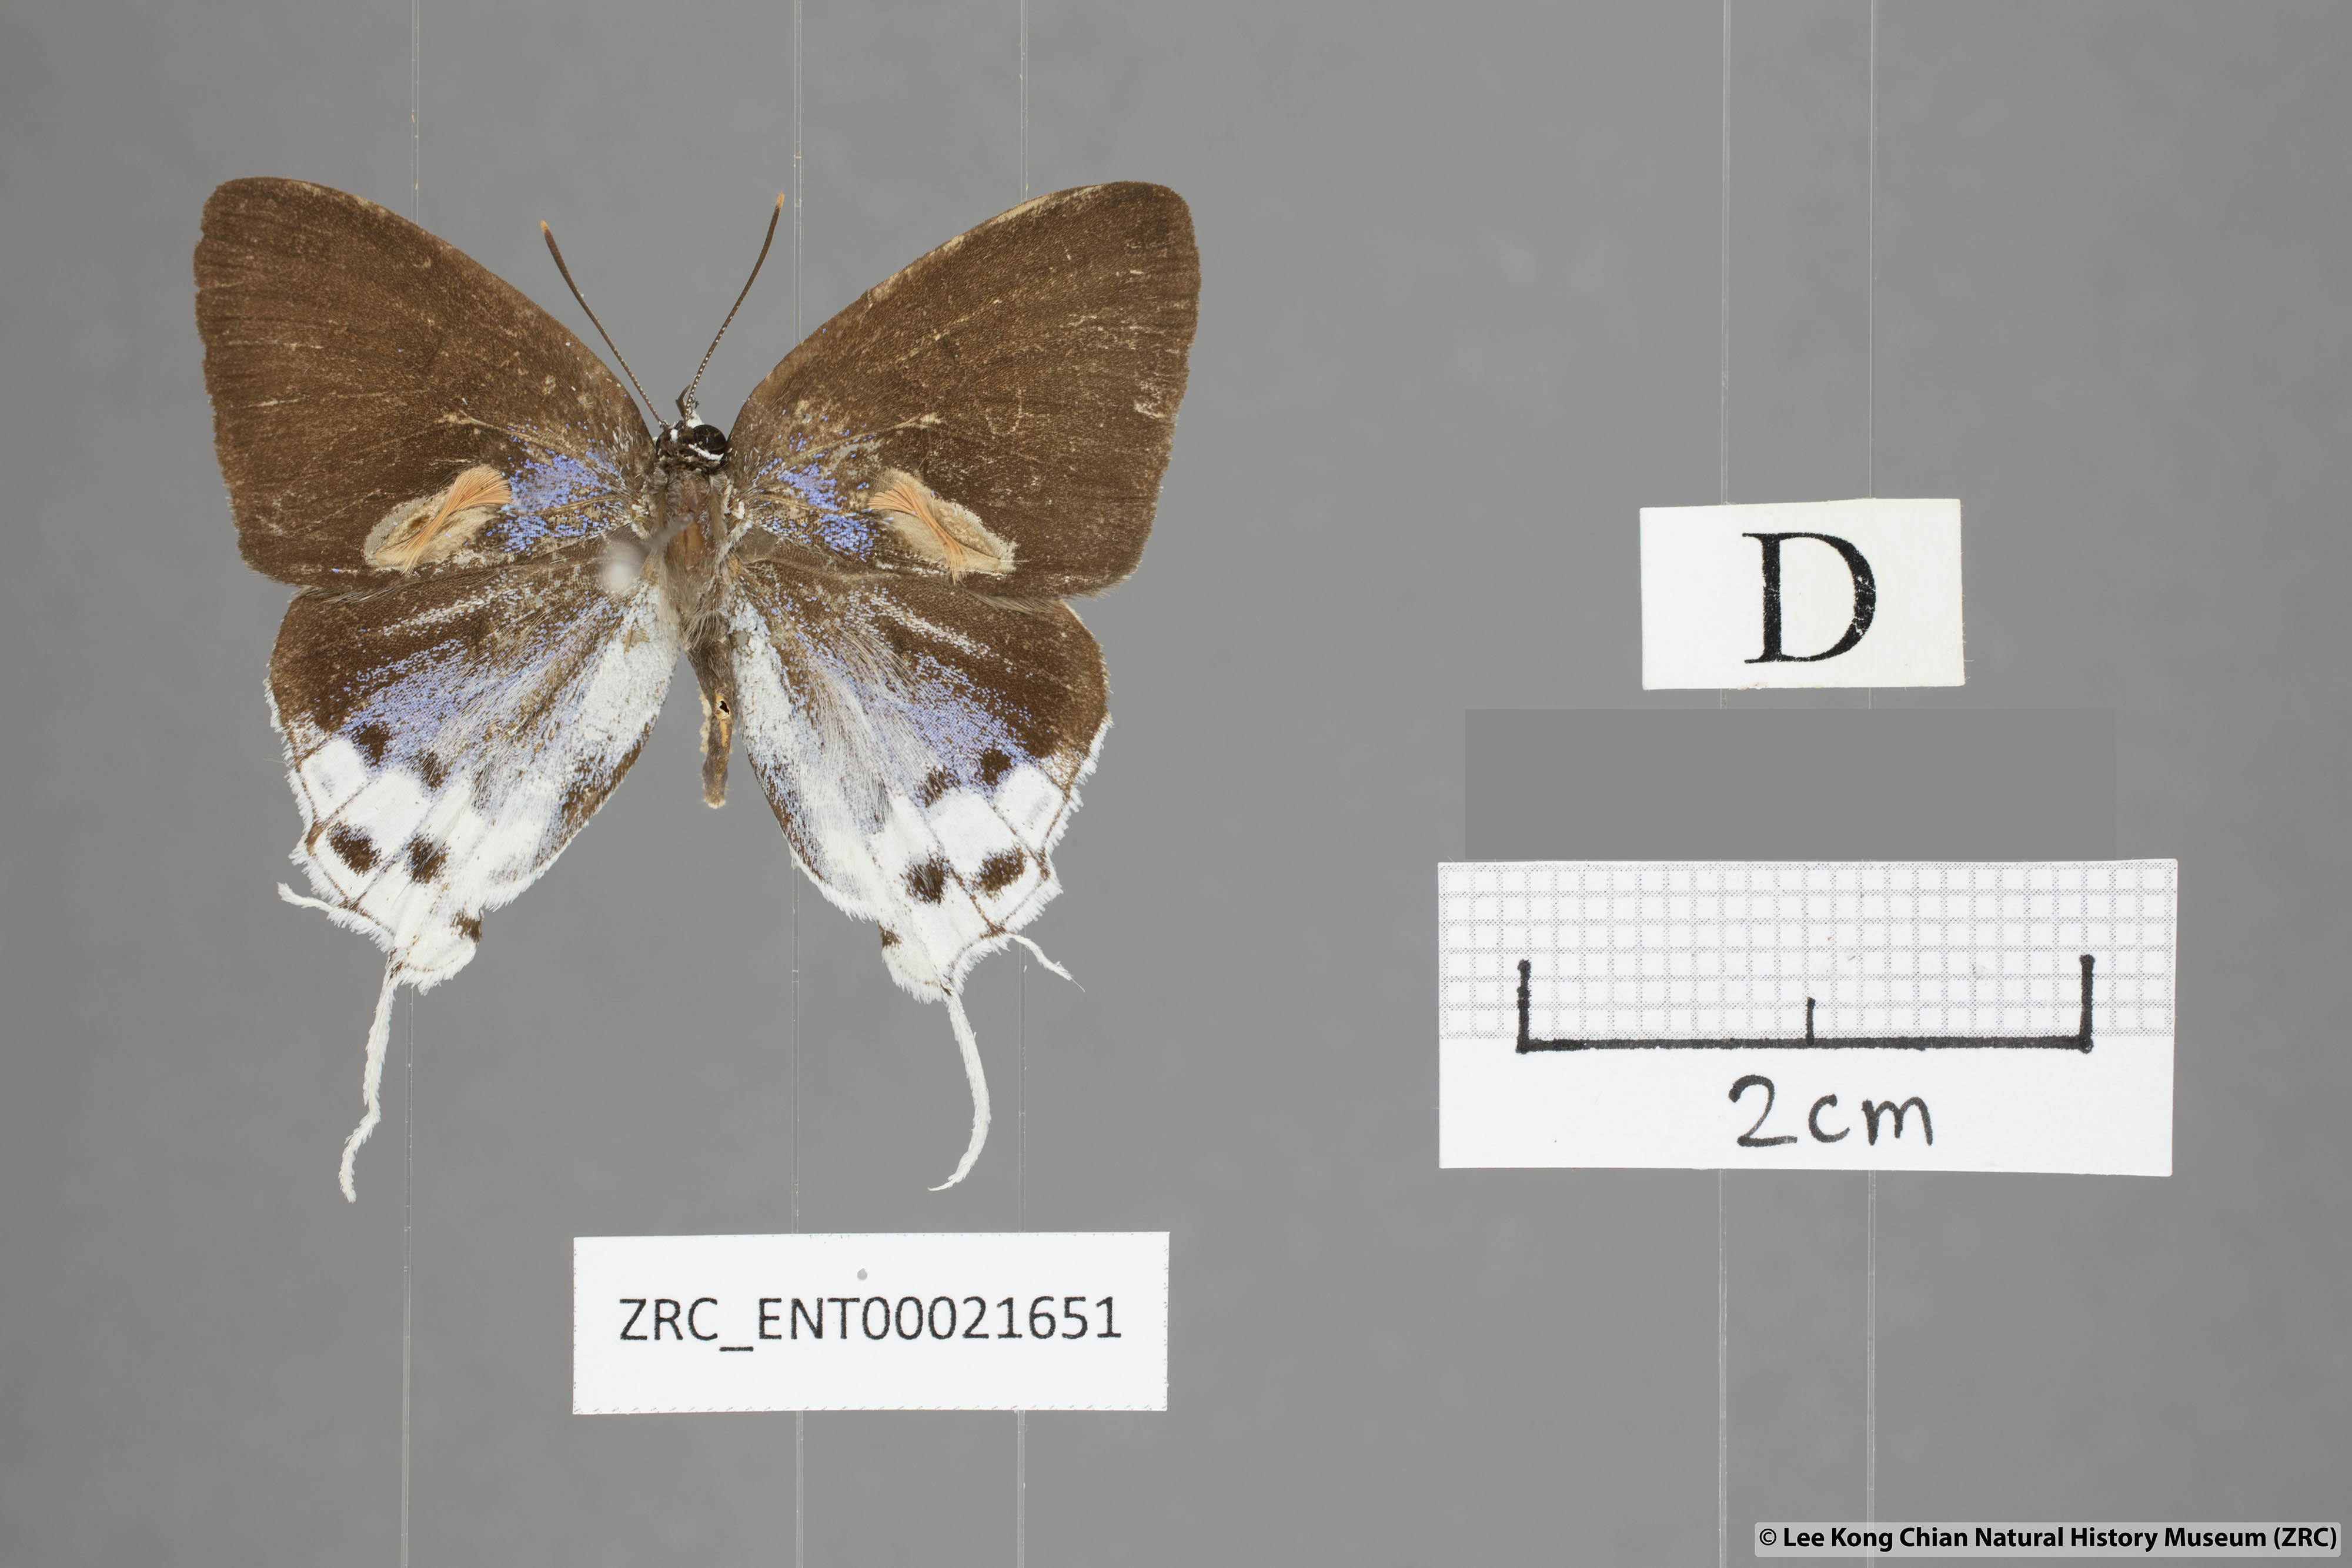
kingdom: Animalia
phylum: Arthropoda
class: Insecta
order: Lepidoptera
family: Lycaenidae
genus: Thrix
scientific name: Thrix
